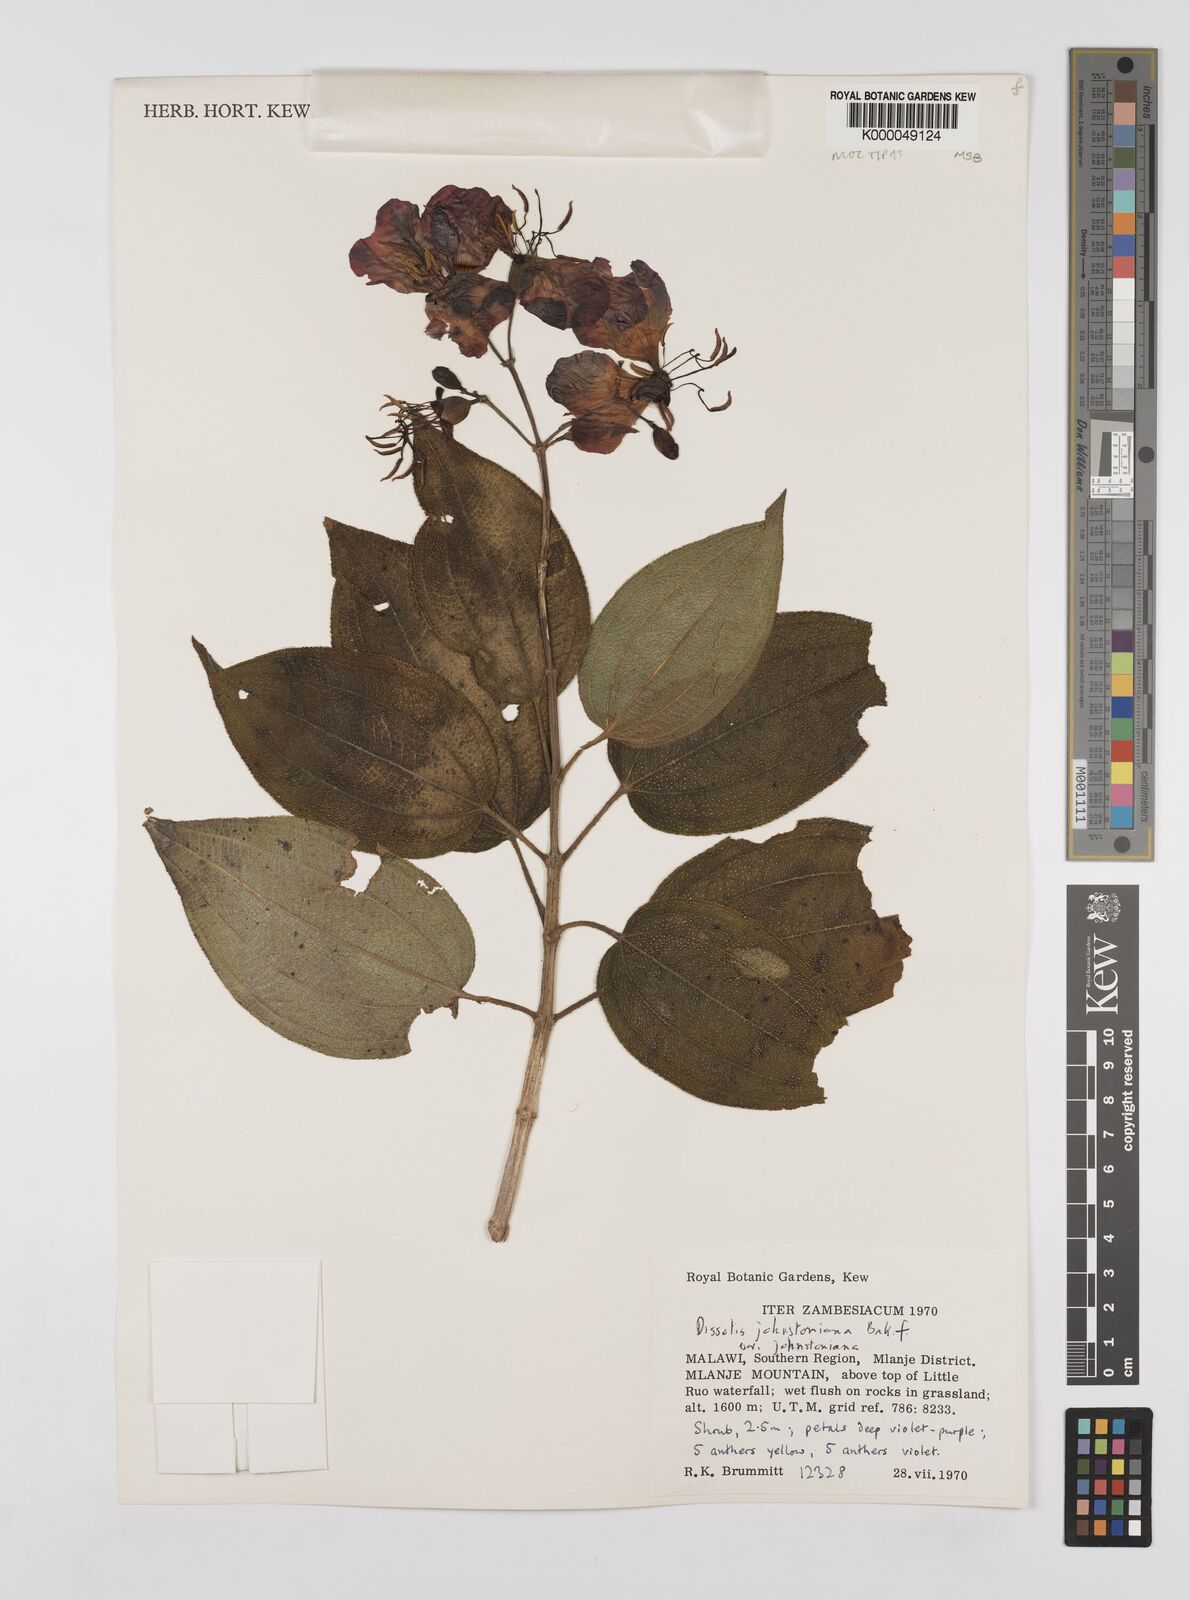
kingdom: Plantae
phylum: Tracheophyta
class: Magnoliopsida
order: Myrtales
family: Melastomataceae
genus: Dissotidendron
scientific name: Dissotidendron johnstonianum
